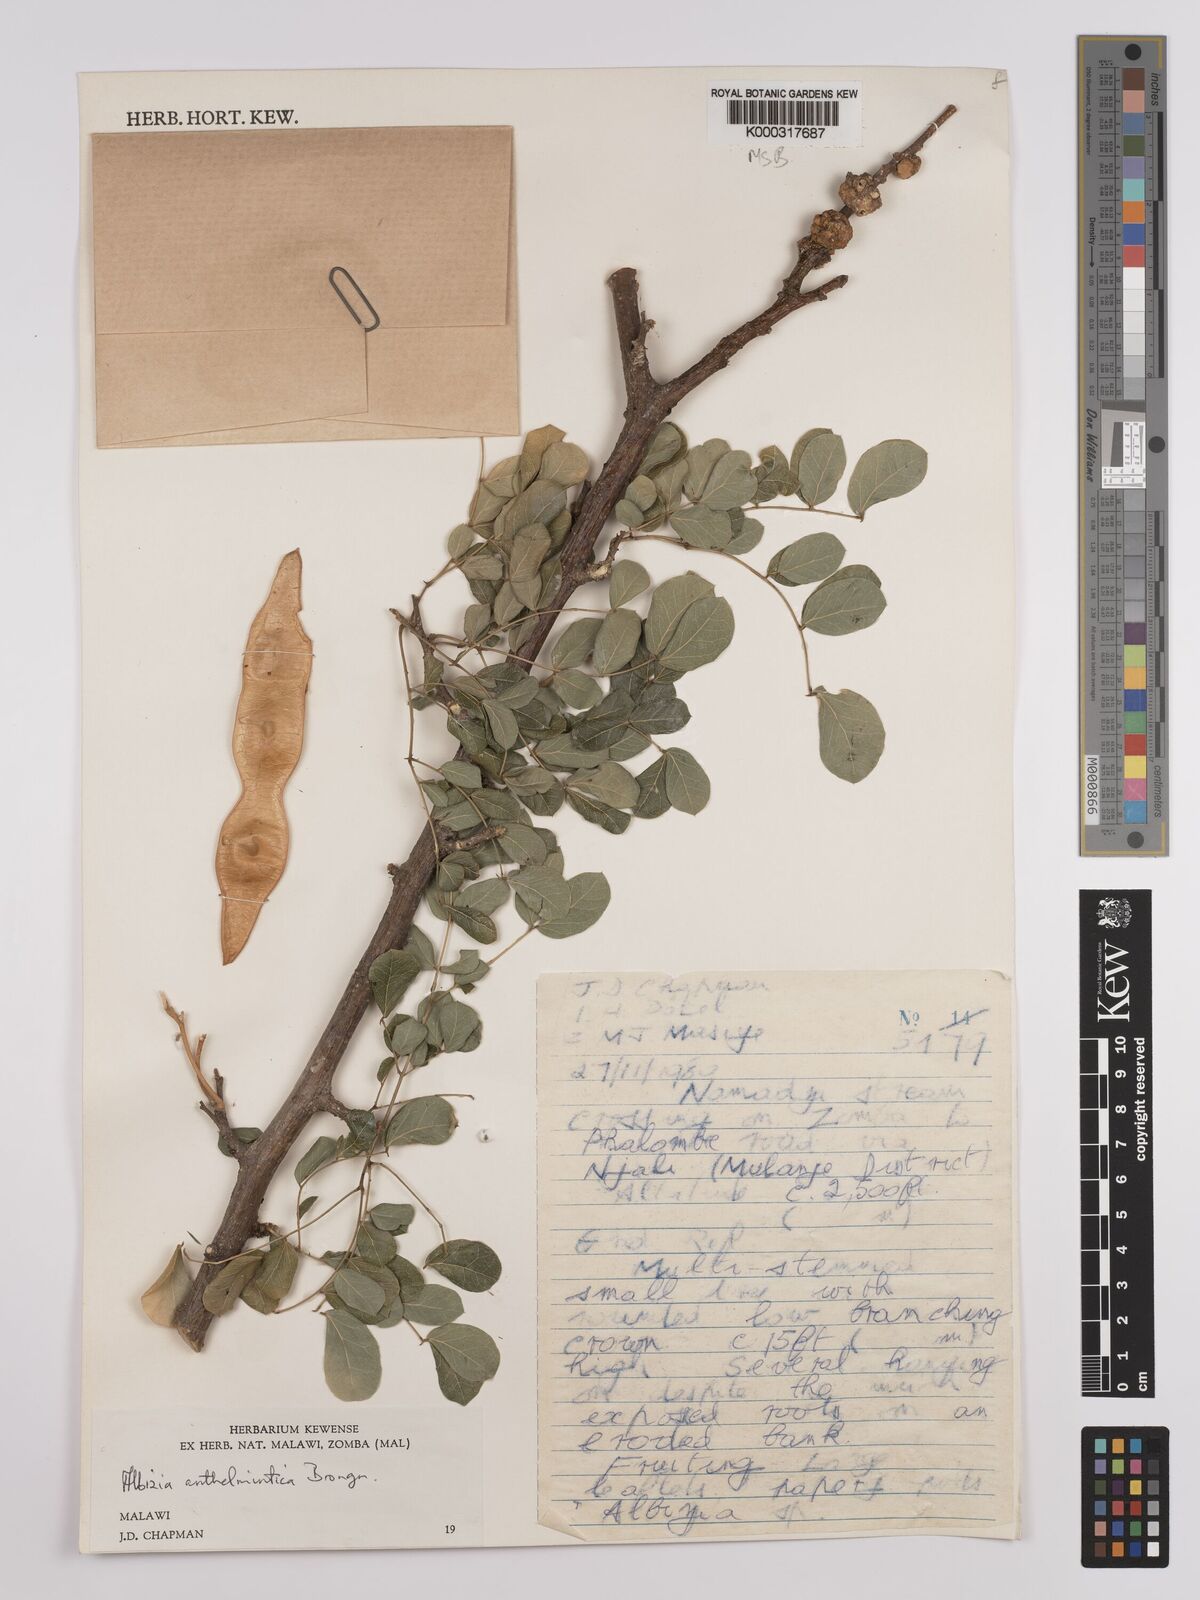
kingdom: Plantae
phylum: Tracheophyta
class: Magnoliopsida
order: Fabales
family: Fabaceae
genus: Albizia
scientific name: Albizia anthelmintica
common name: Worm-bark false-thorn
